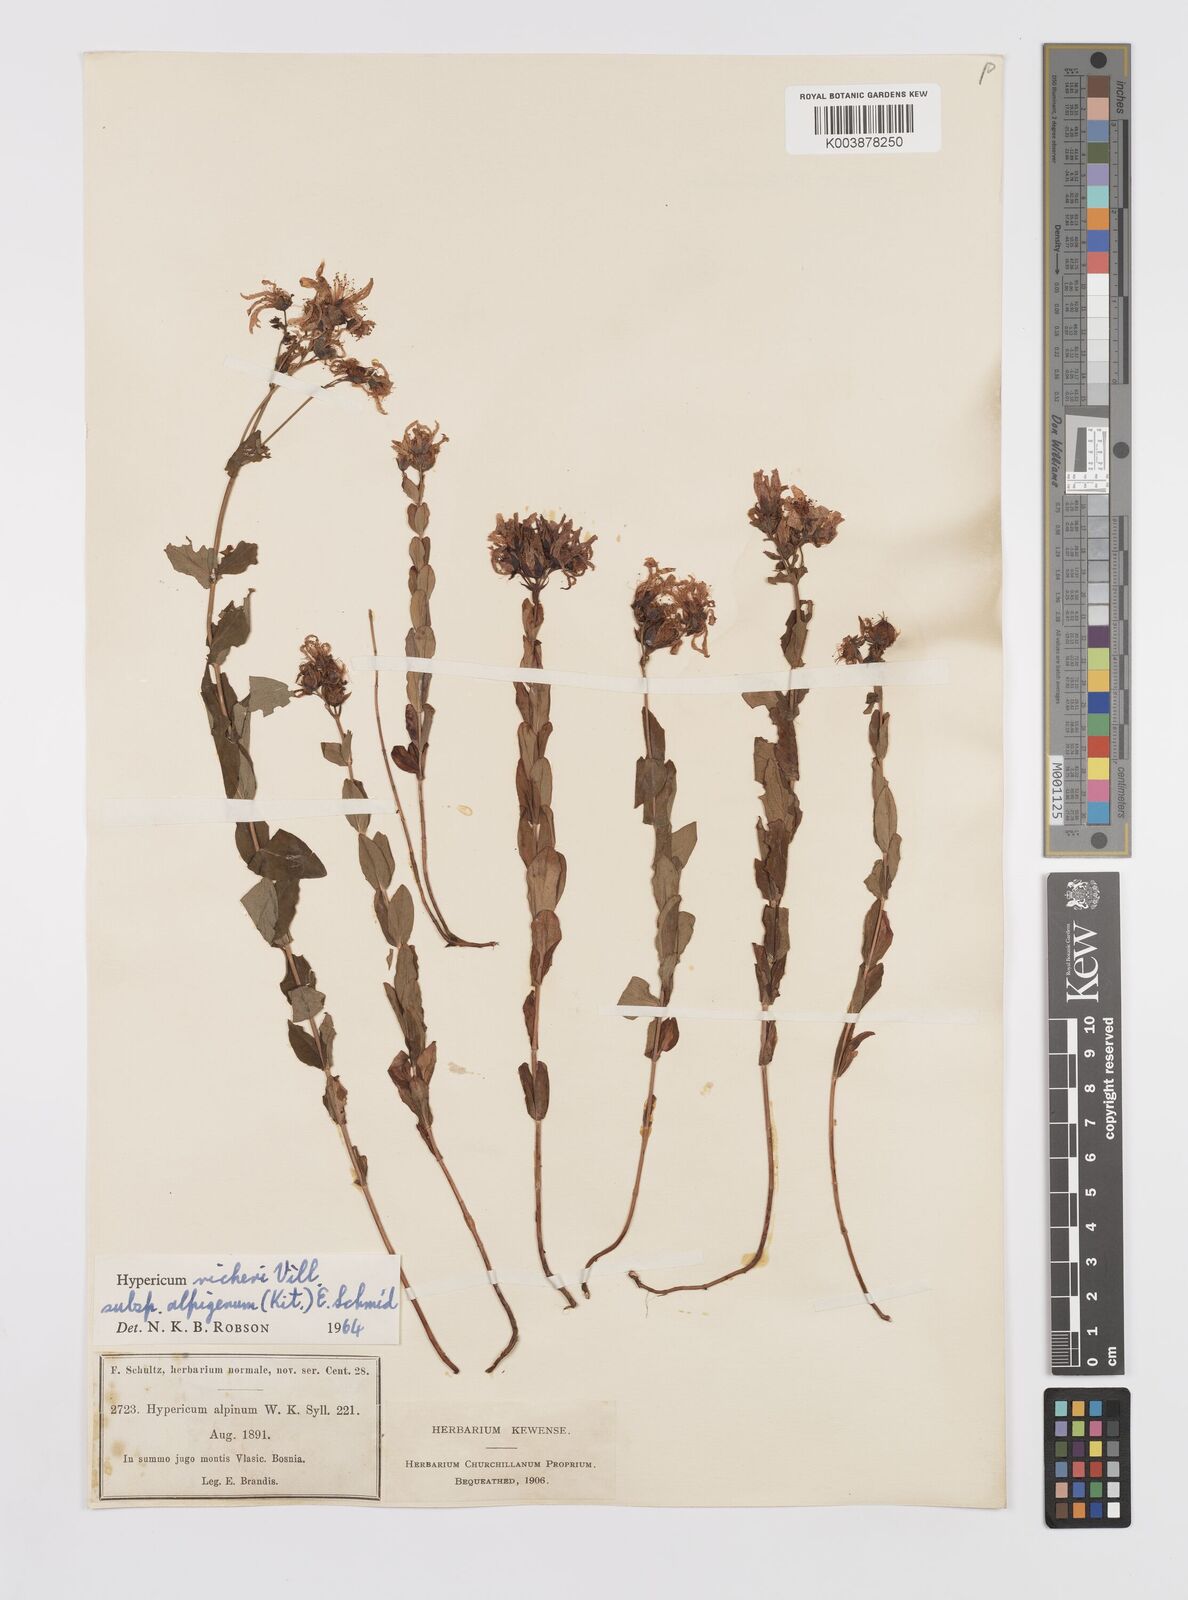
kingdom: Plantae
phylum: Tracheophyta
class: Magnoliopsida
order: Malpighiales
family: Hypericaceae
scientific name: Hypericaceae
